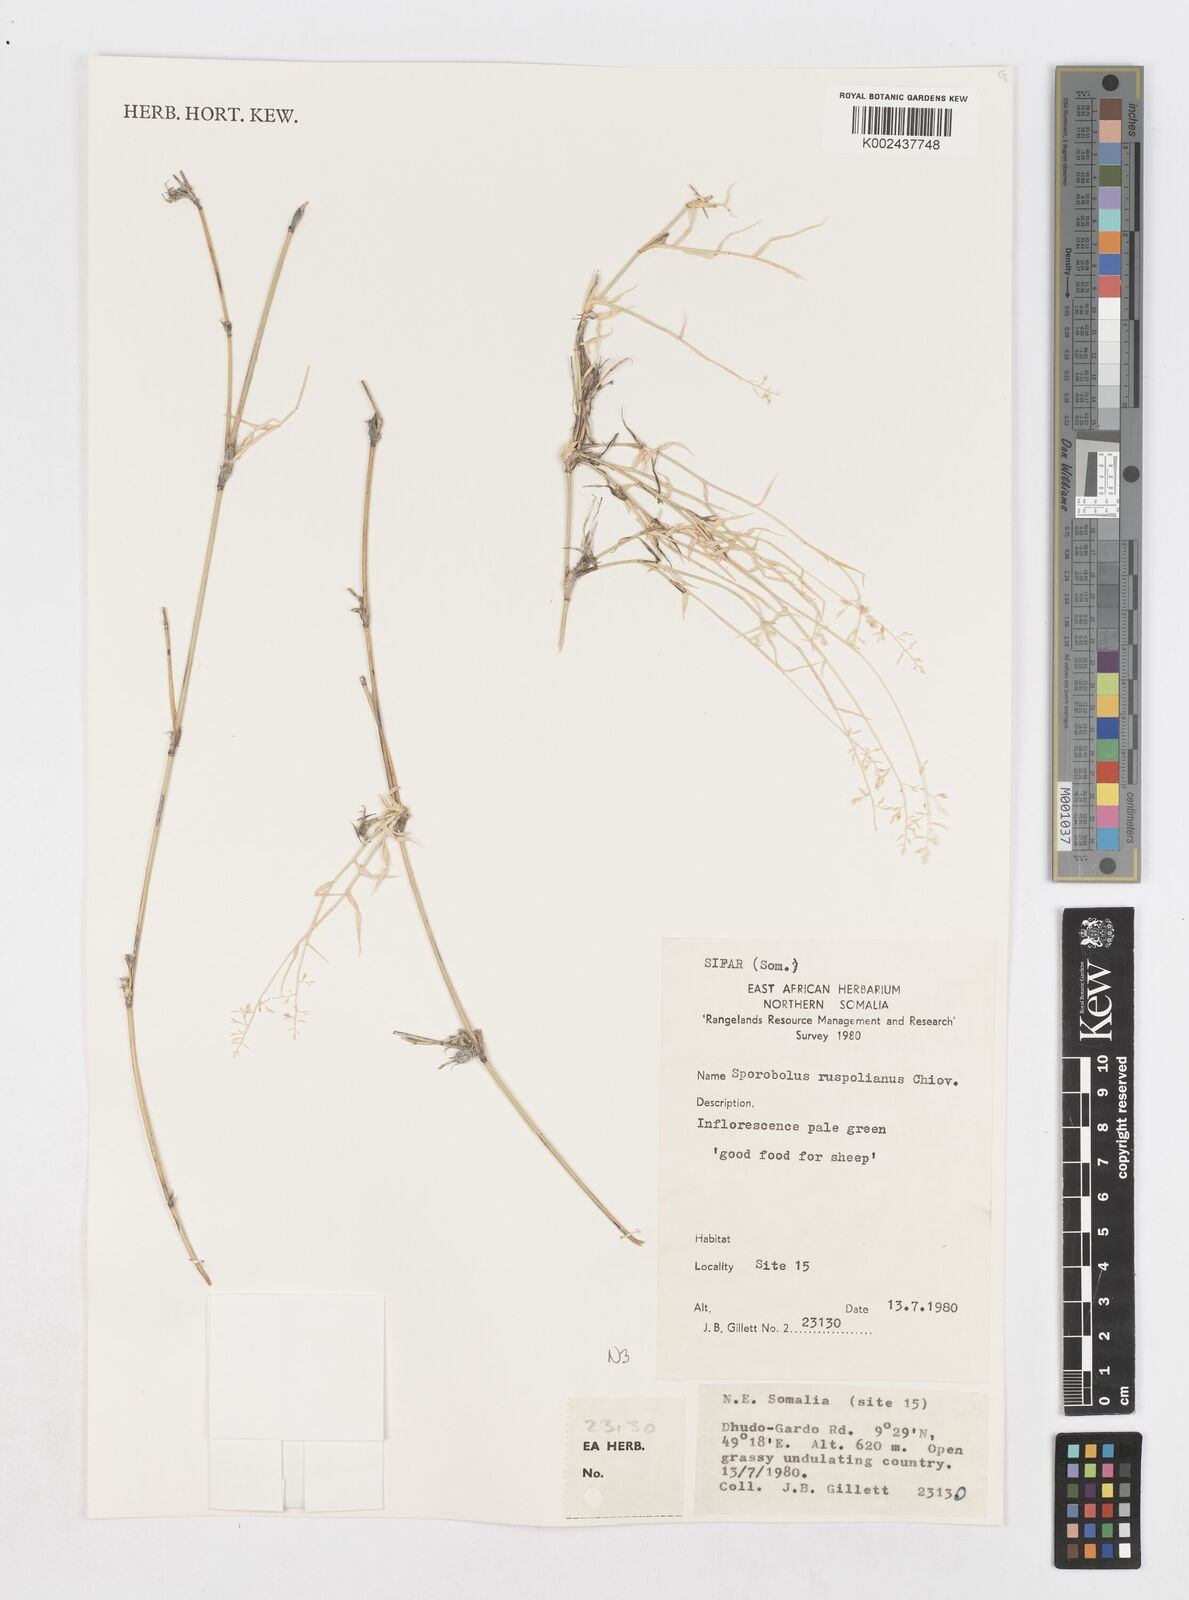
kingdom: Plantae
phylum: Tracheophyta
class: Liliopsida
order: Poales
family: Poaceae
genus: Sporobolus
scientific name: Sporobolus ruspolianus
